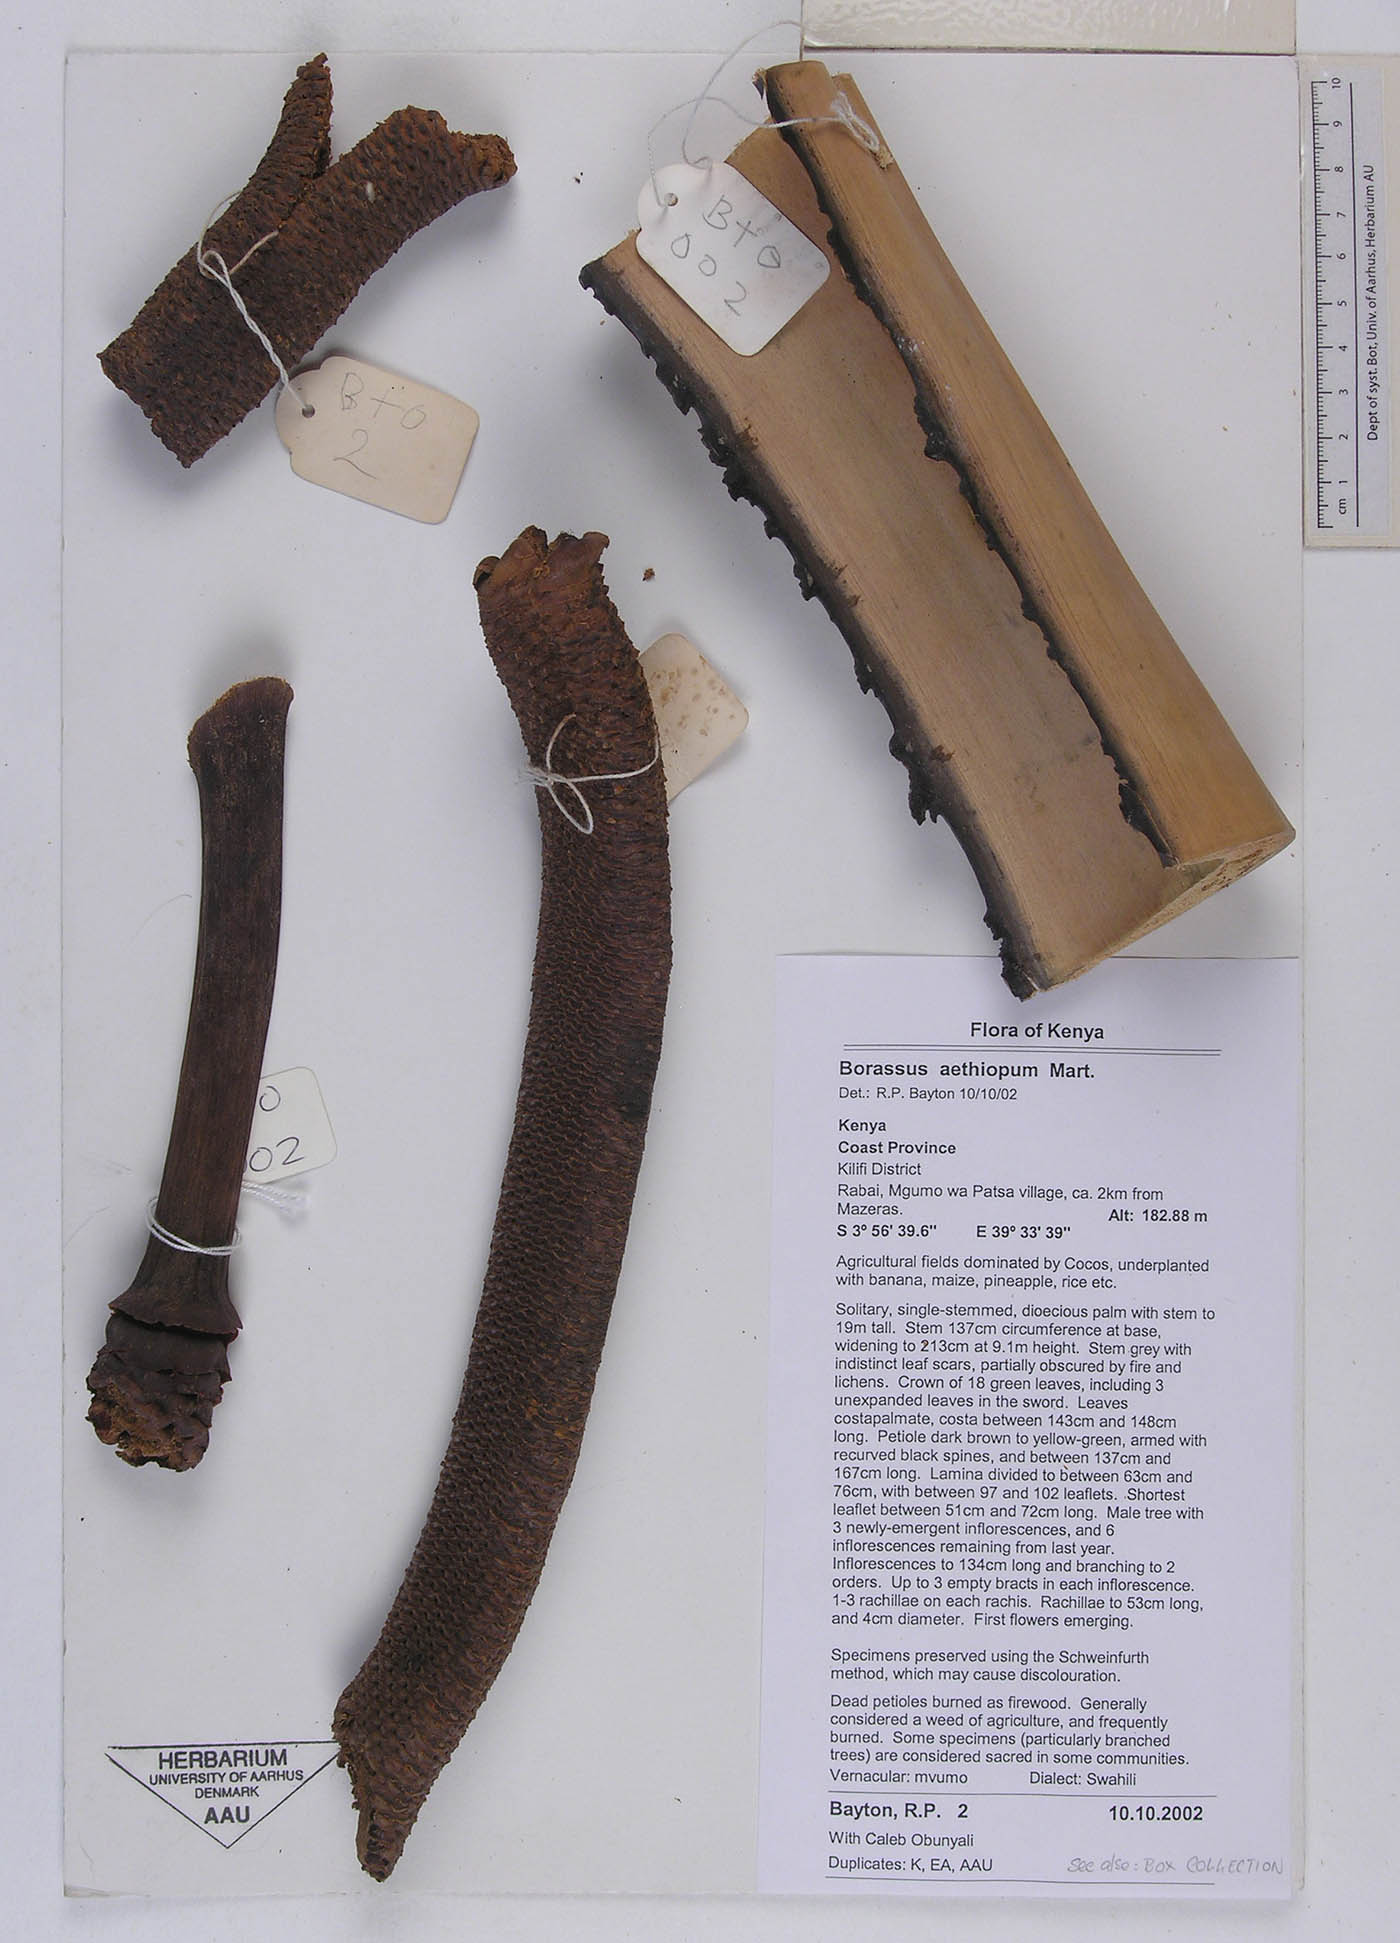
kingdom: Plantae
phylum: Tracheophyta
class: Liliopsida
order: Arecales
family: Arecaceae
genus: Borassus
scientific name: Borassus aethiopum
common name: Elephant palm
